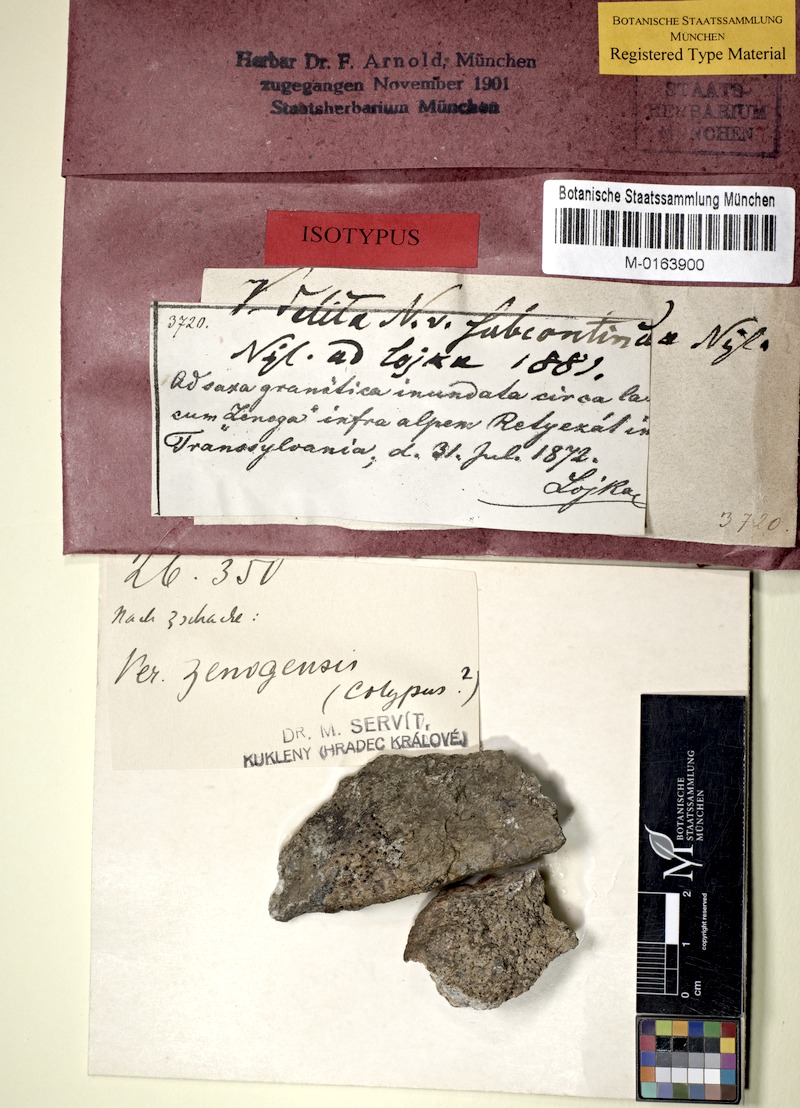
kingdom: Fungi
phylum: Ascomycota
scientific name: Ascomycota
